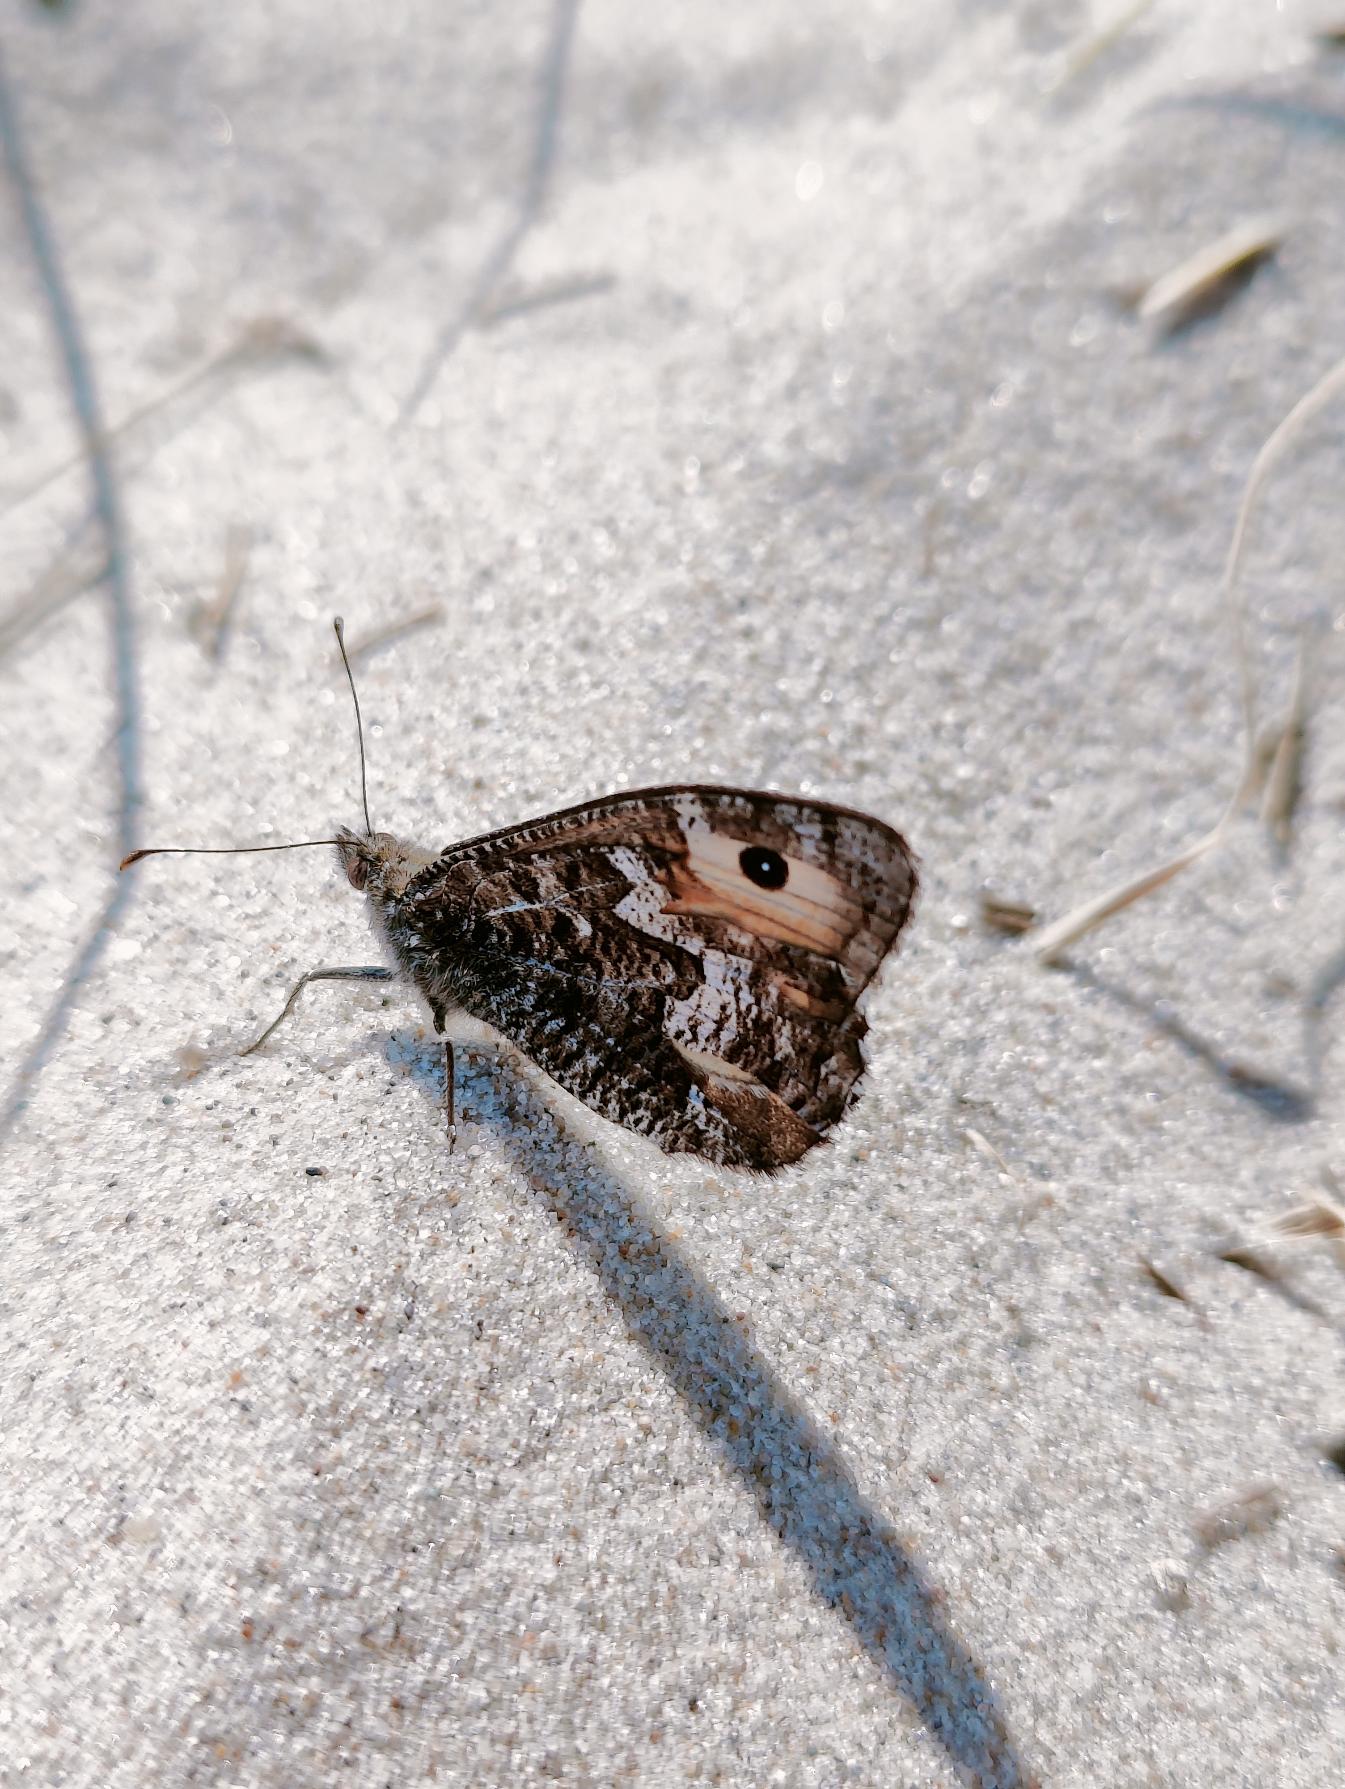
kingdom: Animalia
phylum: Arthropoda
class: Insecta
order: Lepidoptera
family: Nymphalidae
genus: Hipparchia
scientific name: Hipparchia semele
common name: Sandrandøje
